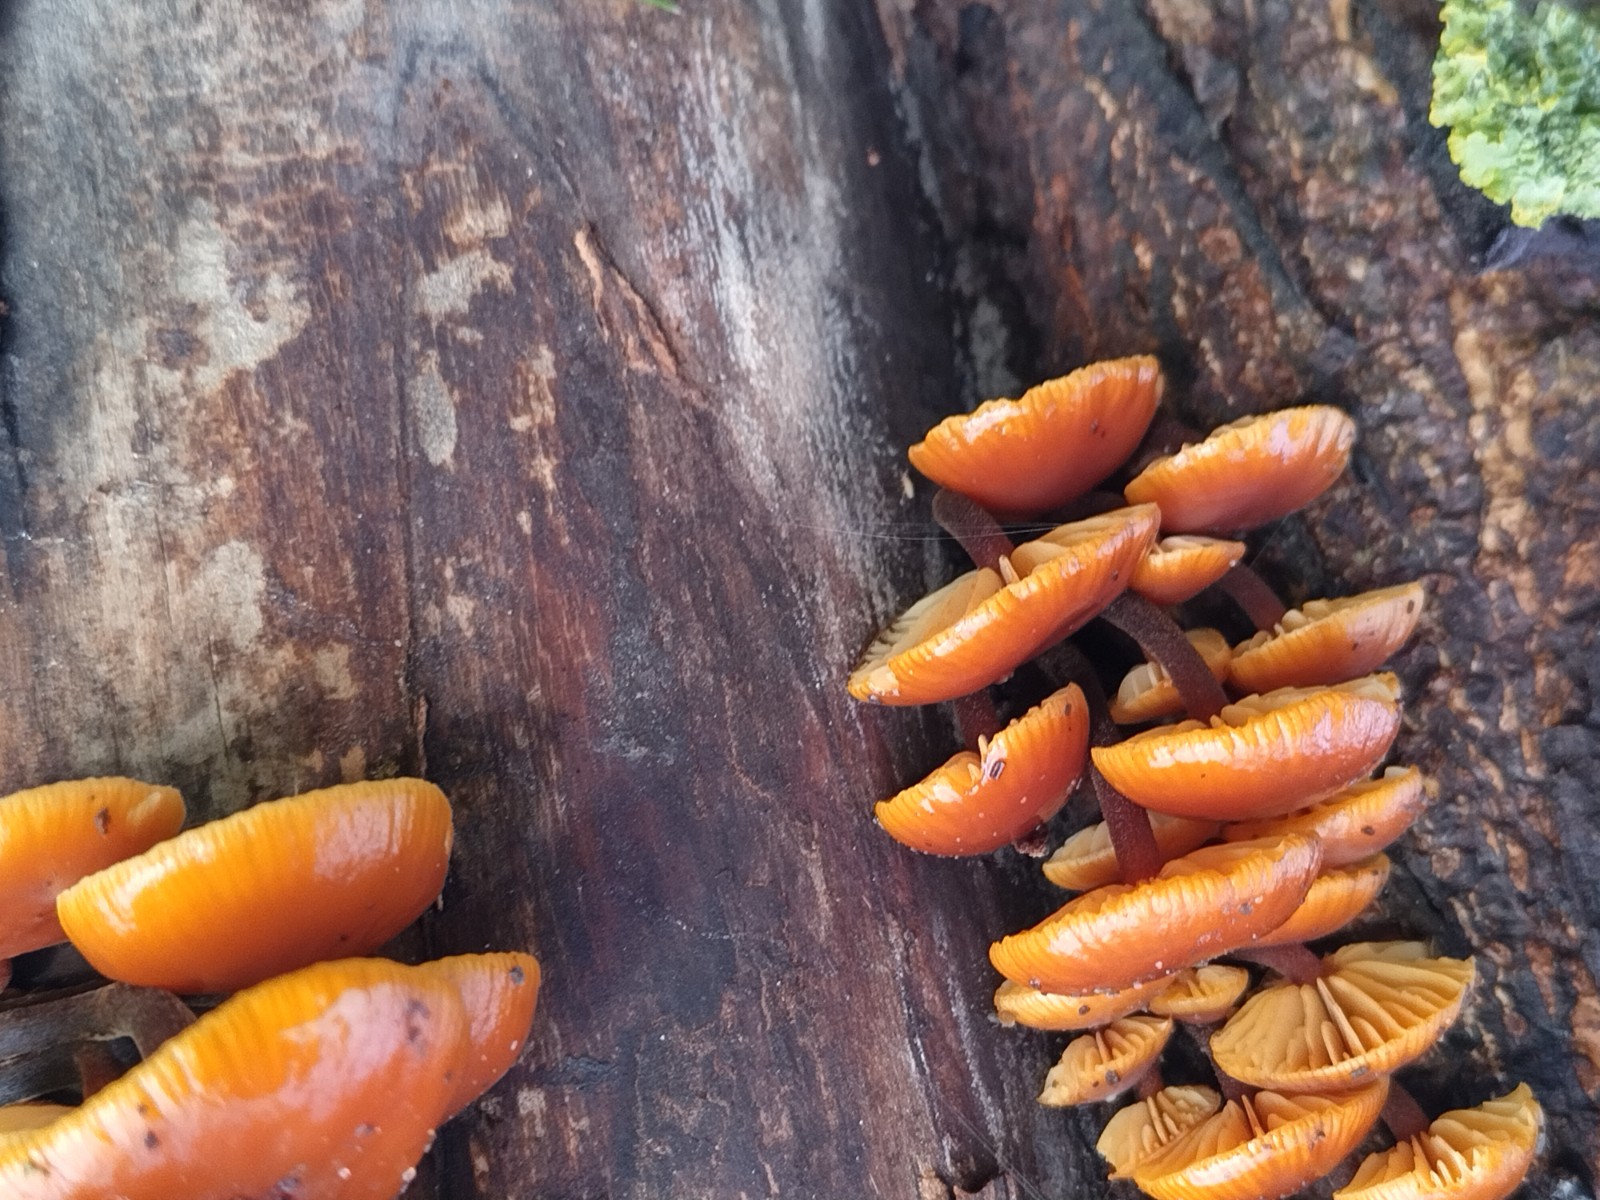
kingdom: Fungi
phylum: Basidiomycota
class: Agaricomycetes
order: Agaricales
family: Physalacriaceae
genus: Flammulina
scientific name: Flammulina velutipes
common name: gul fløjlsfod
